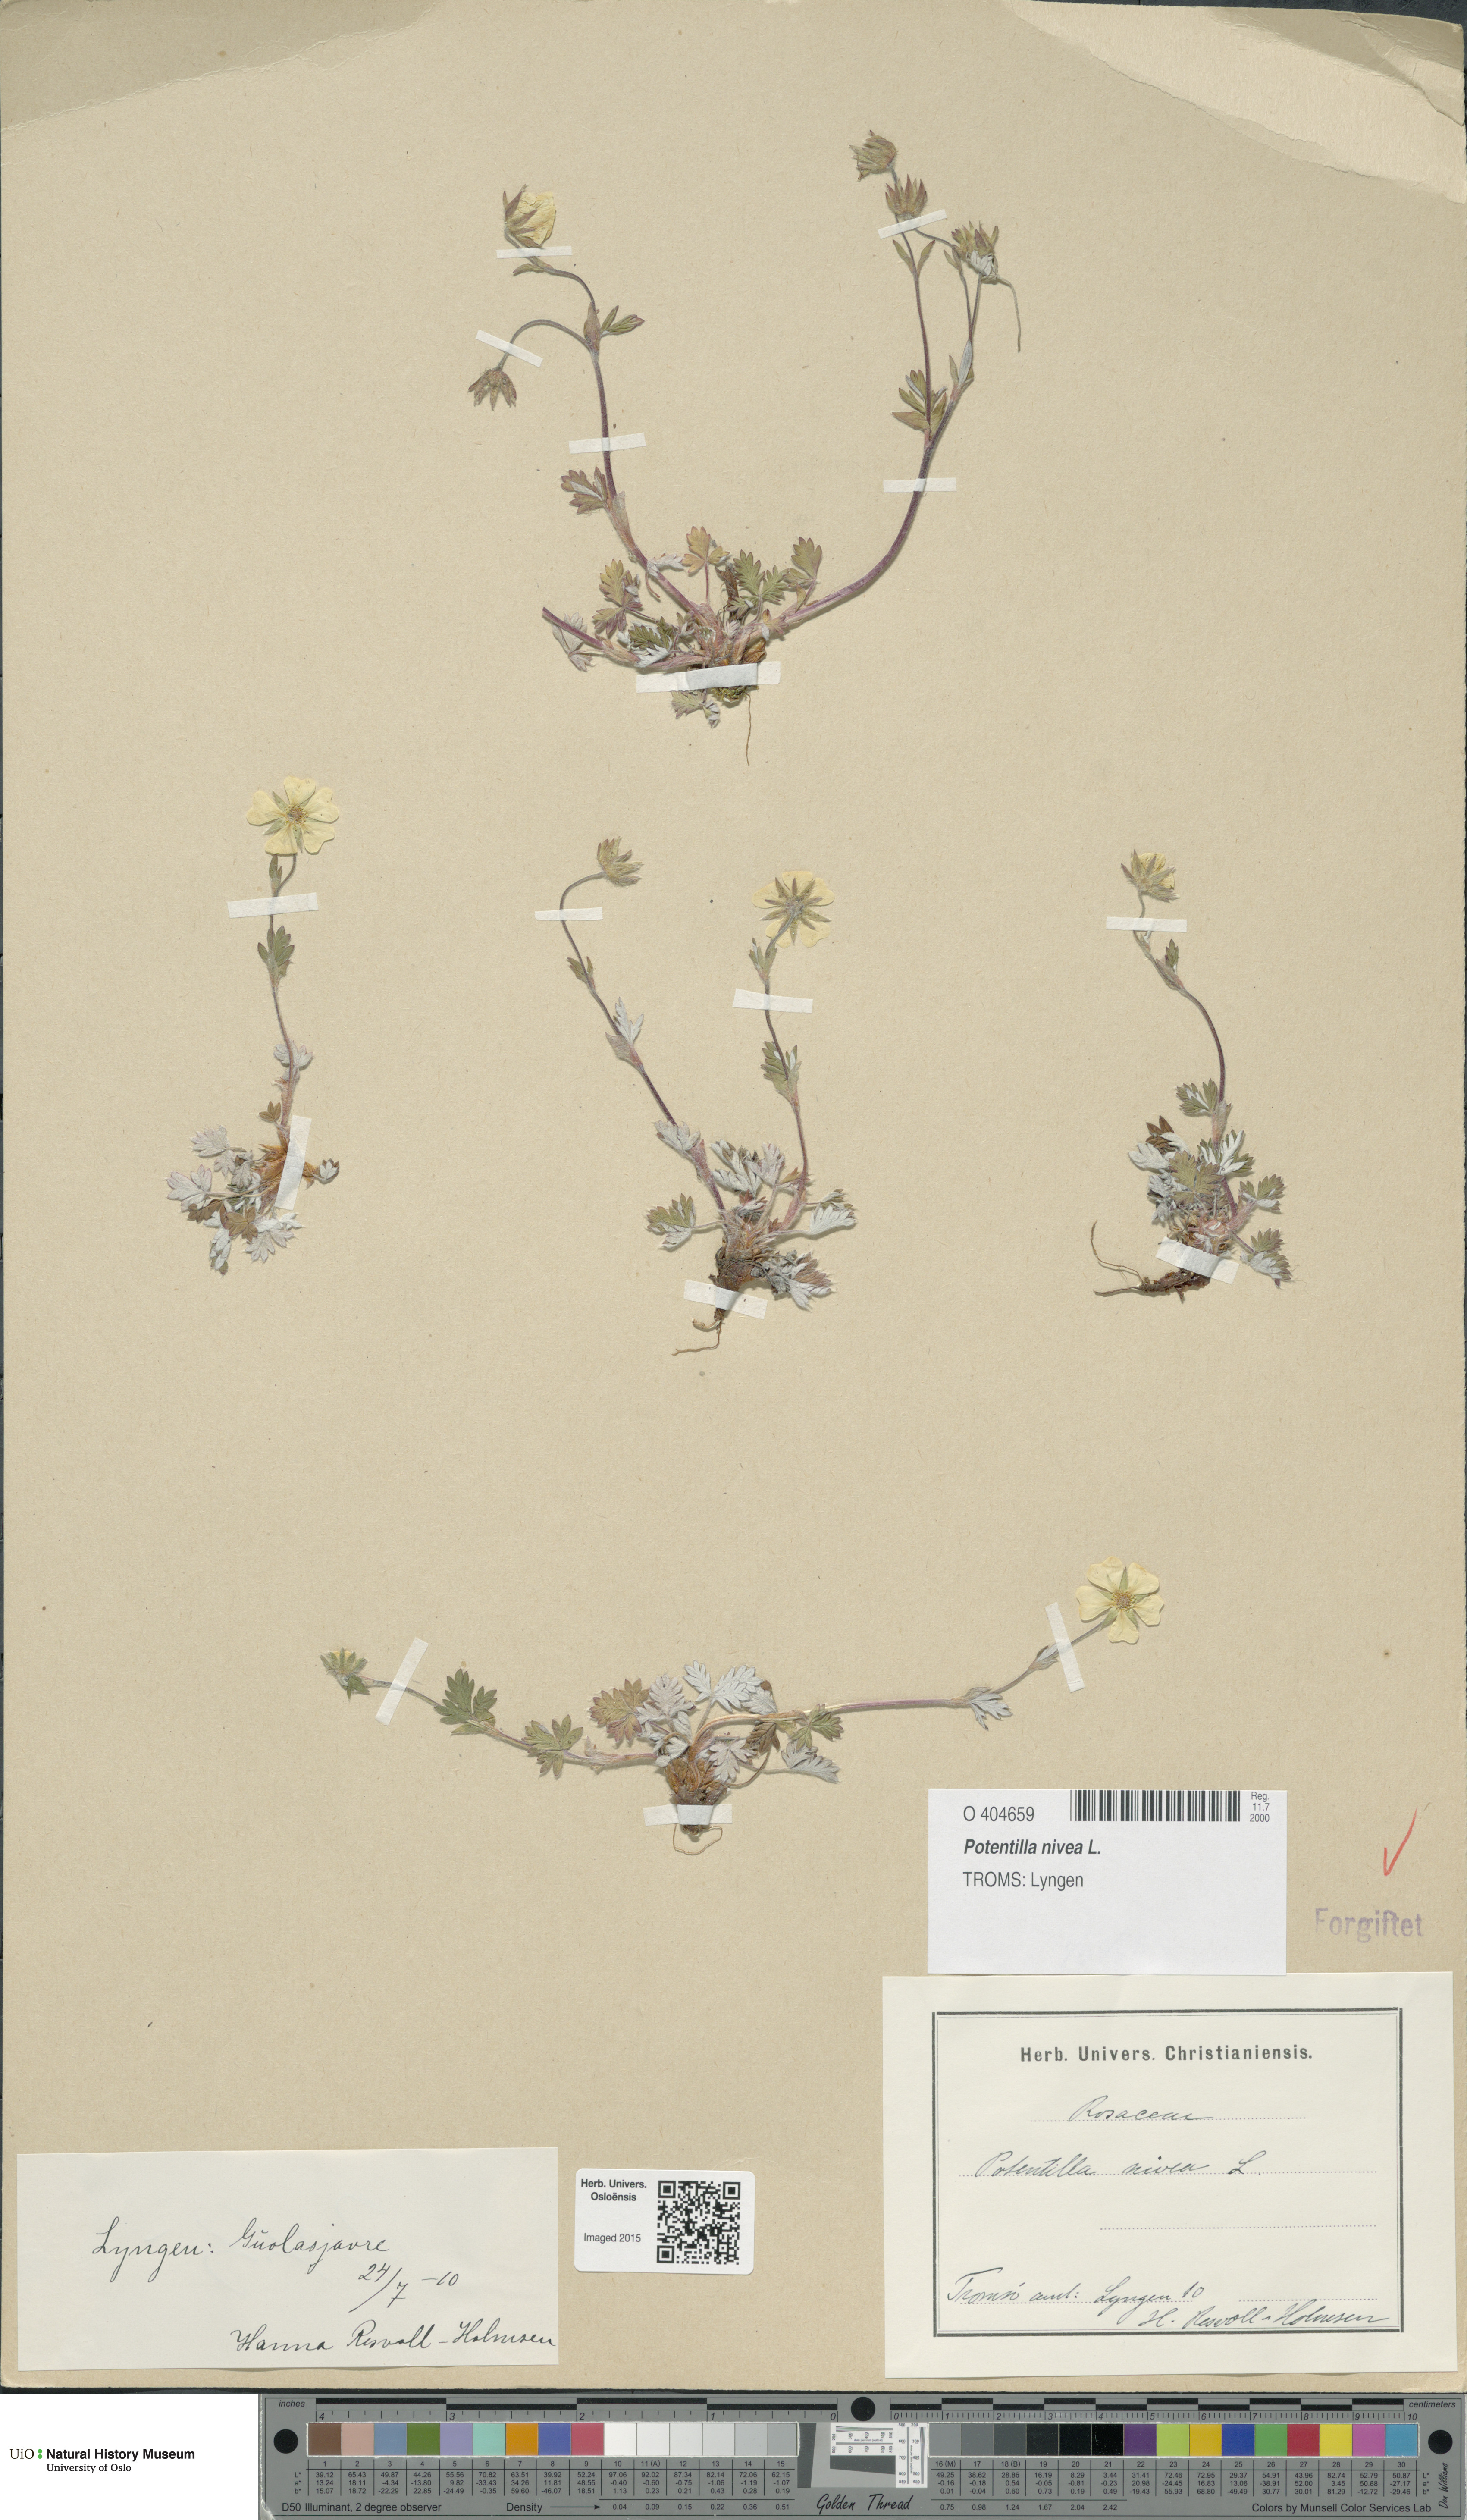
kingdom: Plantae
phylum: Tracheophyta
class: Magnoliopsida
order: Rosales
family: Rosaceae
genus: Potentilla
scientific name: Potentilla arenosa
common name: Bluff cinquefoil
